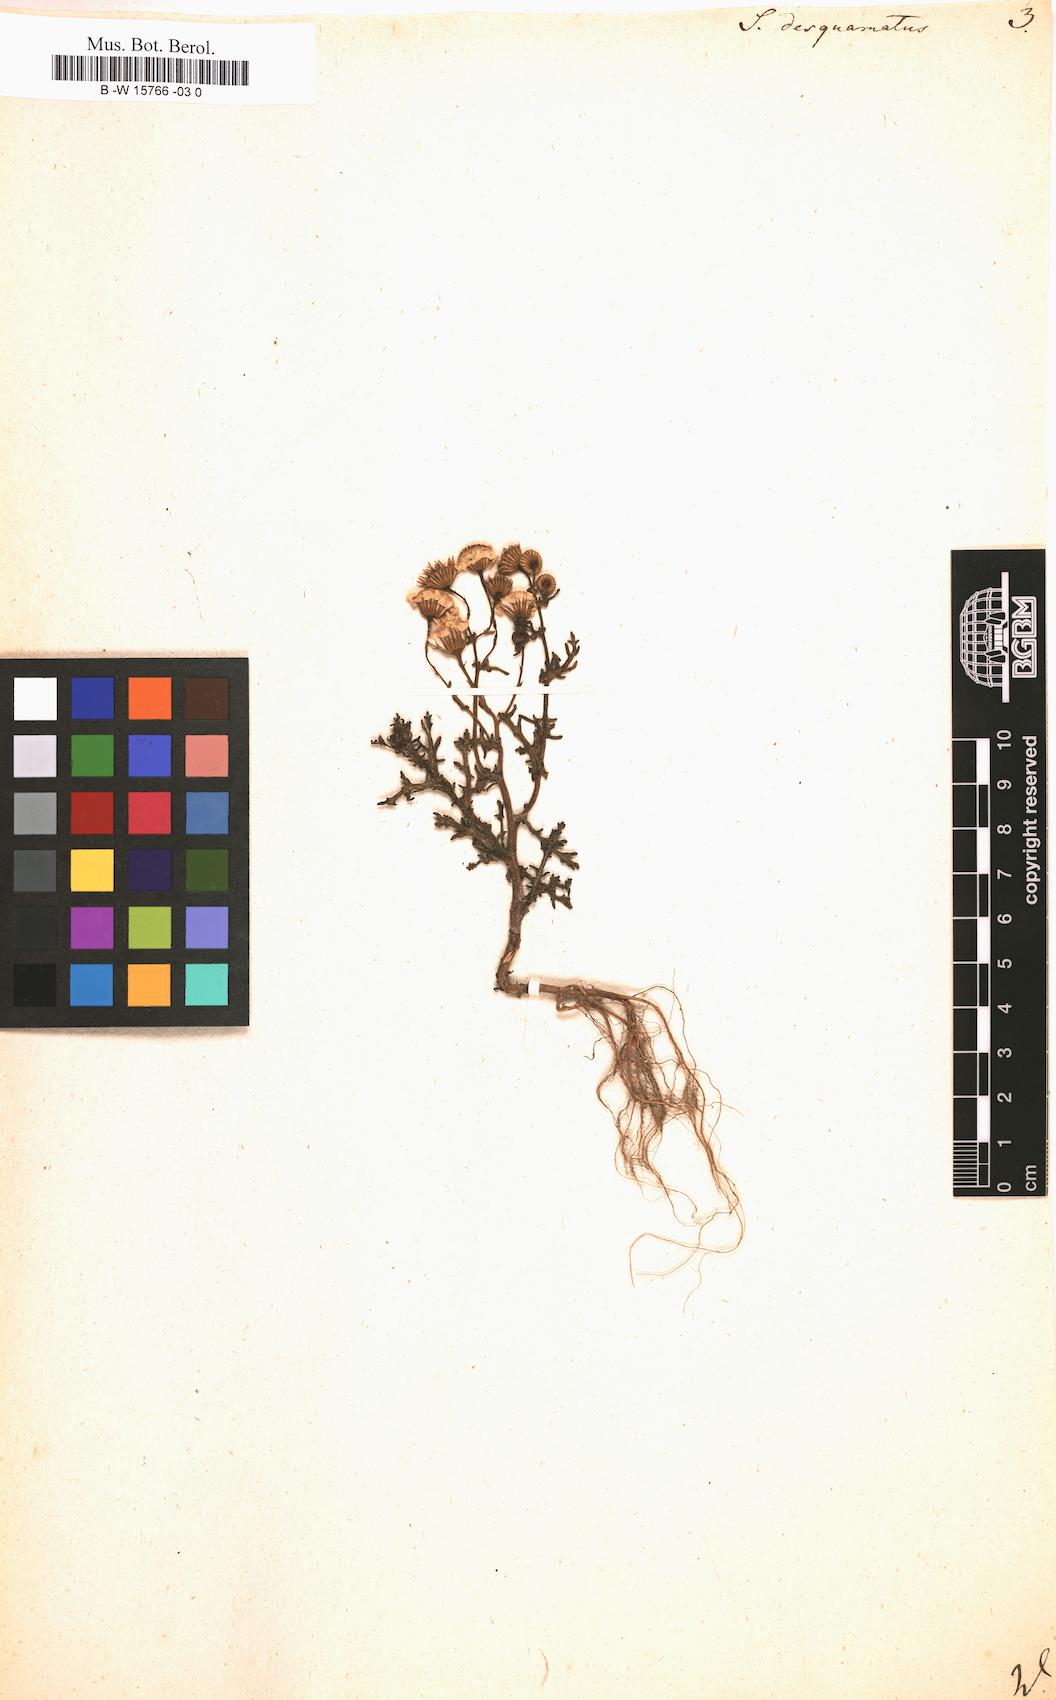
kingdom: Plantae
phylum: Tracheophyta
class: Magnoliopsida
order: Asterales
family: Asteraceae
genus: Senecio
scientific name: Senecio
